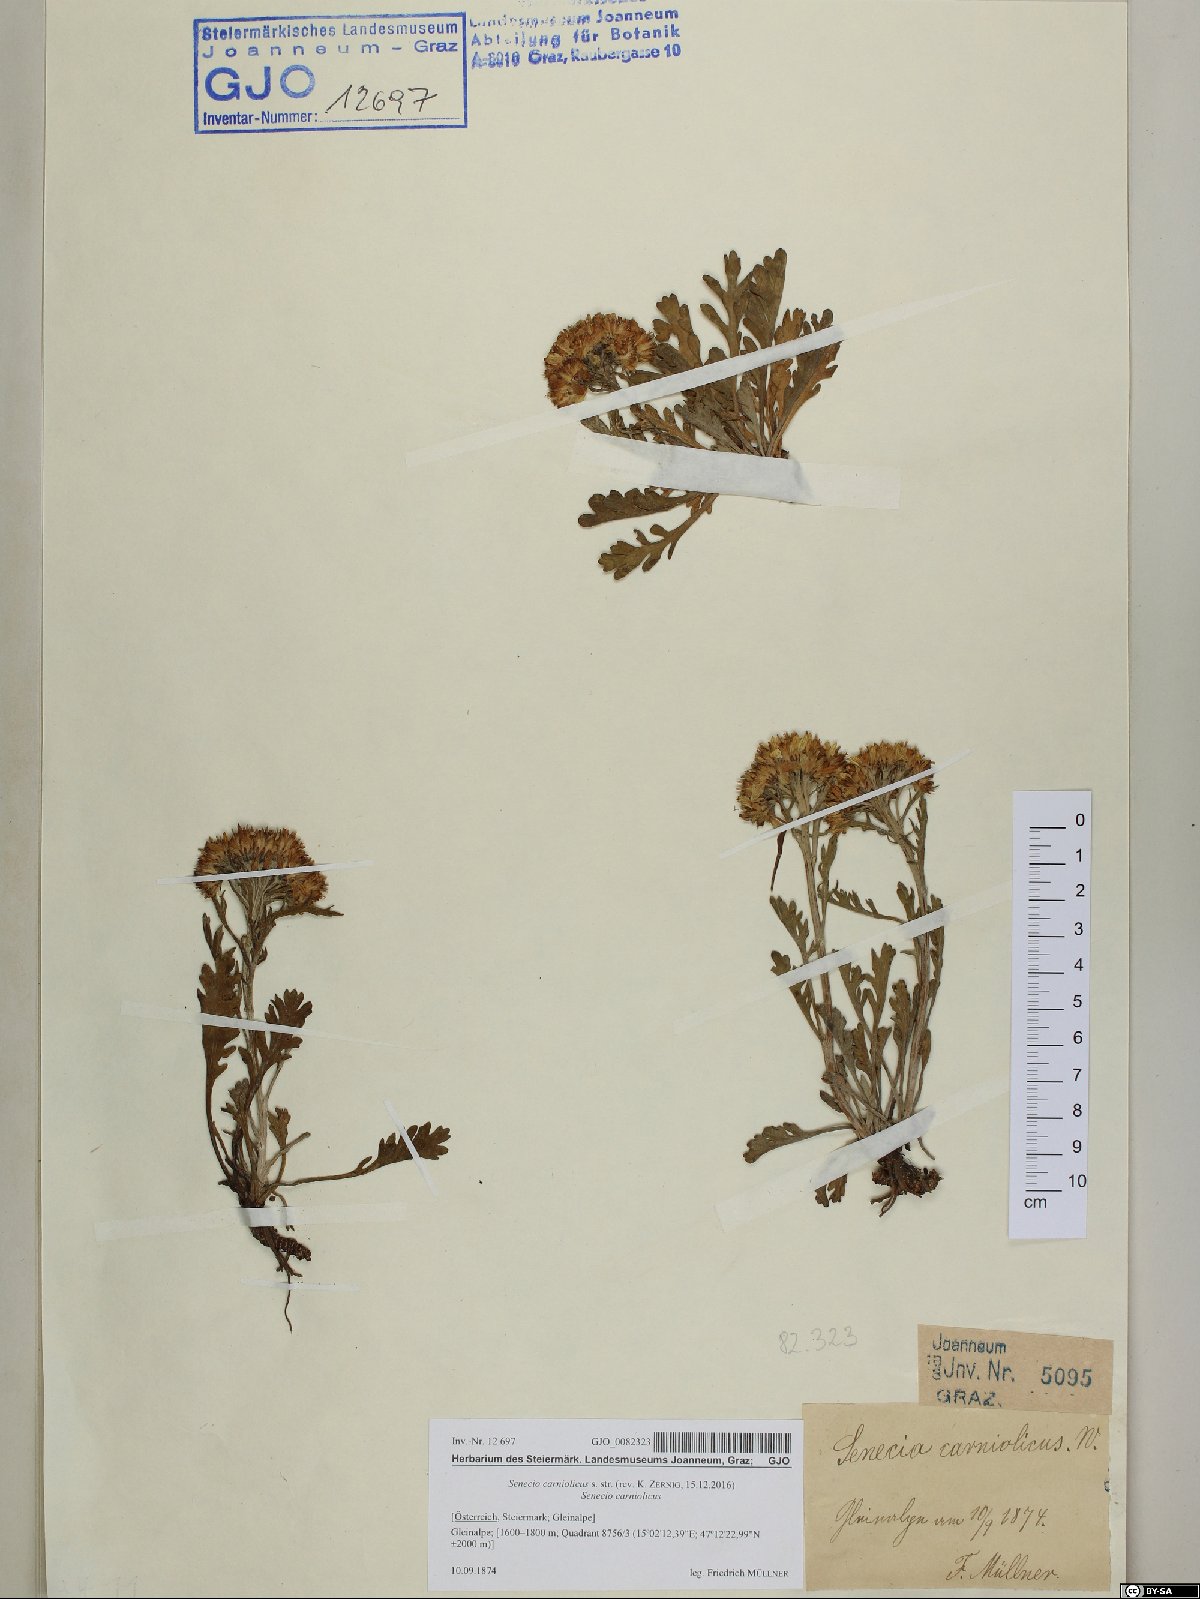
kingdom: Plantae
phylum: Tracheophyta
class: Magnoliopsida
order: Asterales
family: Asteraceae
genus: Jacobaea
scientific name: Jacobaea carniolica
